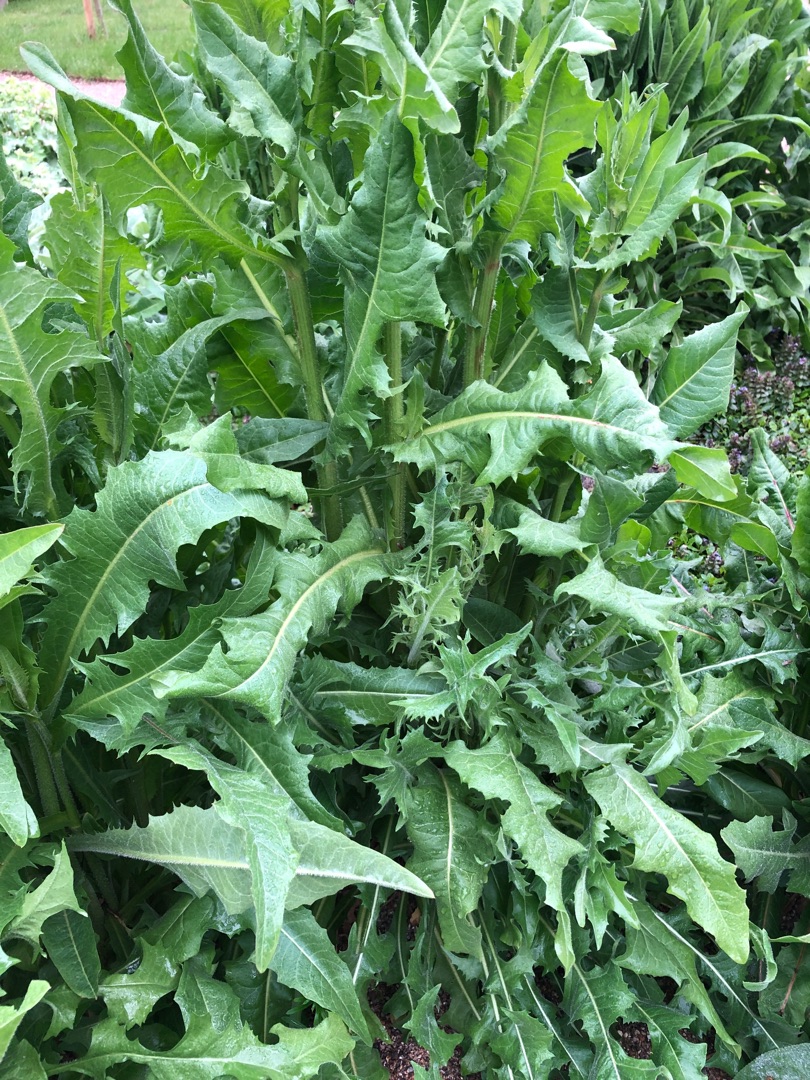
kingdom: Plantae
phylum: Tracheophyta
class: Magnoliopsida
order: Brassicales
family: Brassicaceae
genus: Bunias
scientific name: Bunias orientalis
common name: Takkeklap
